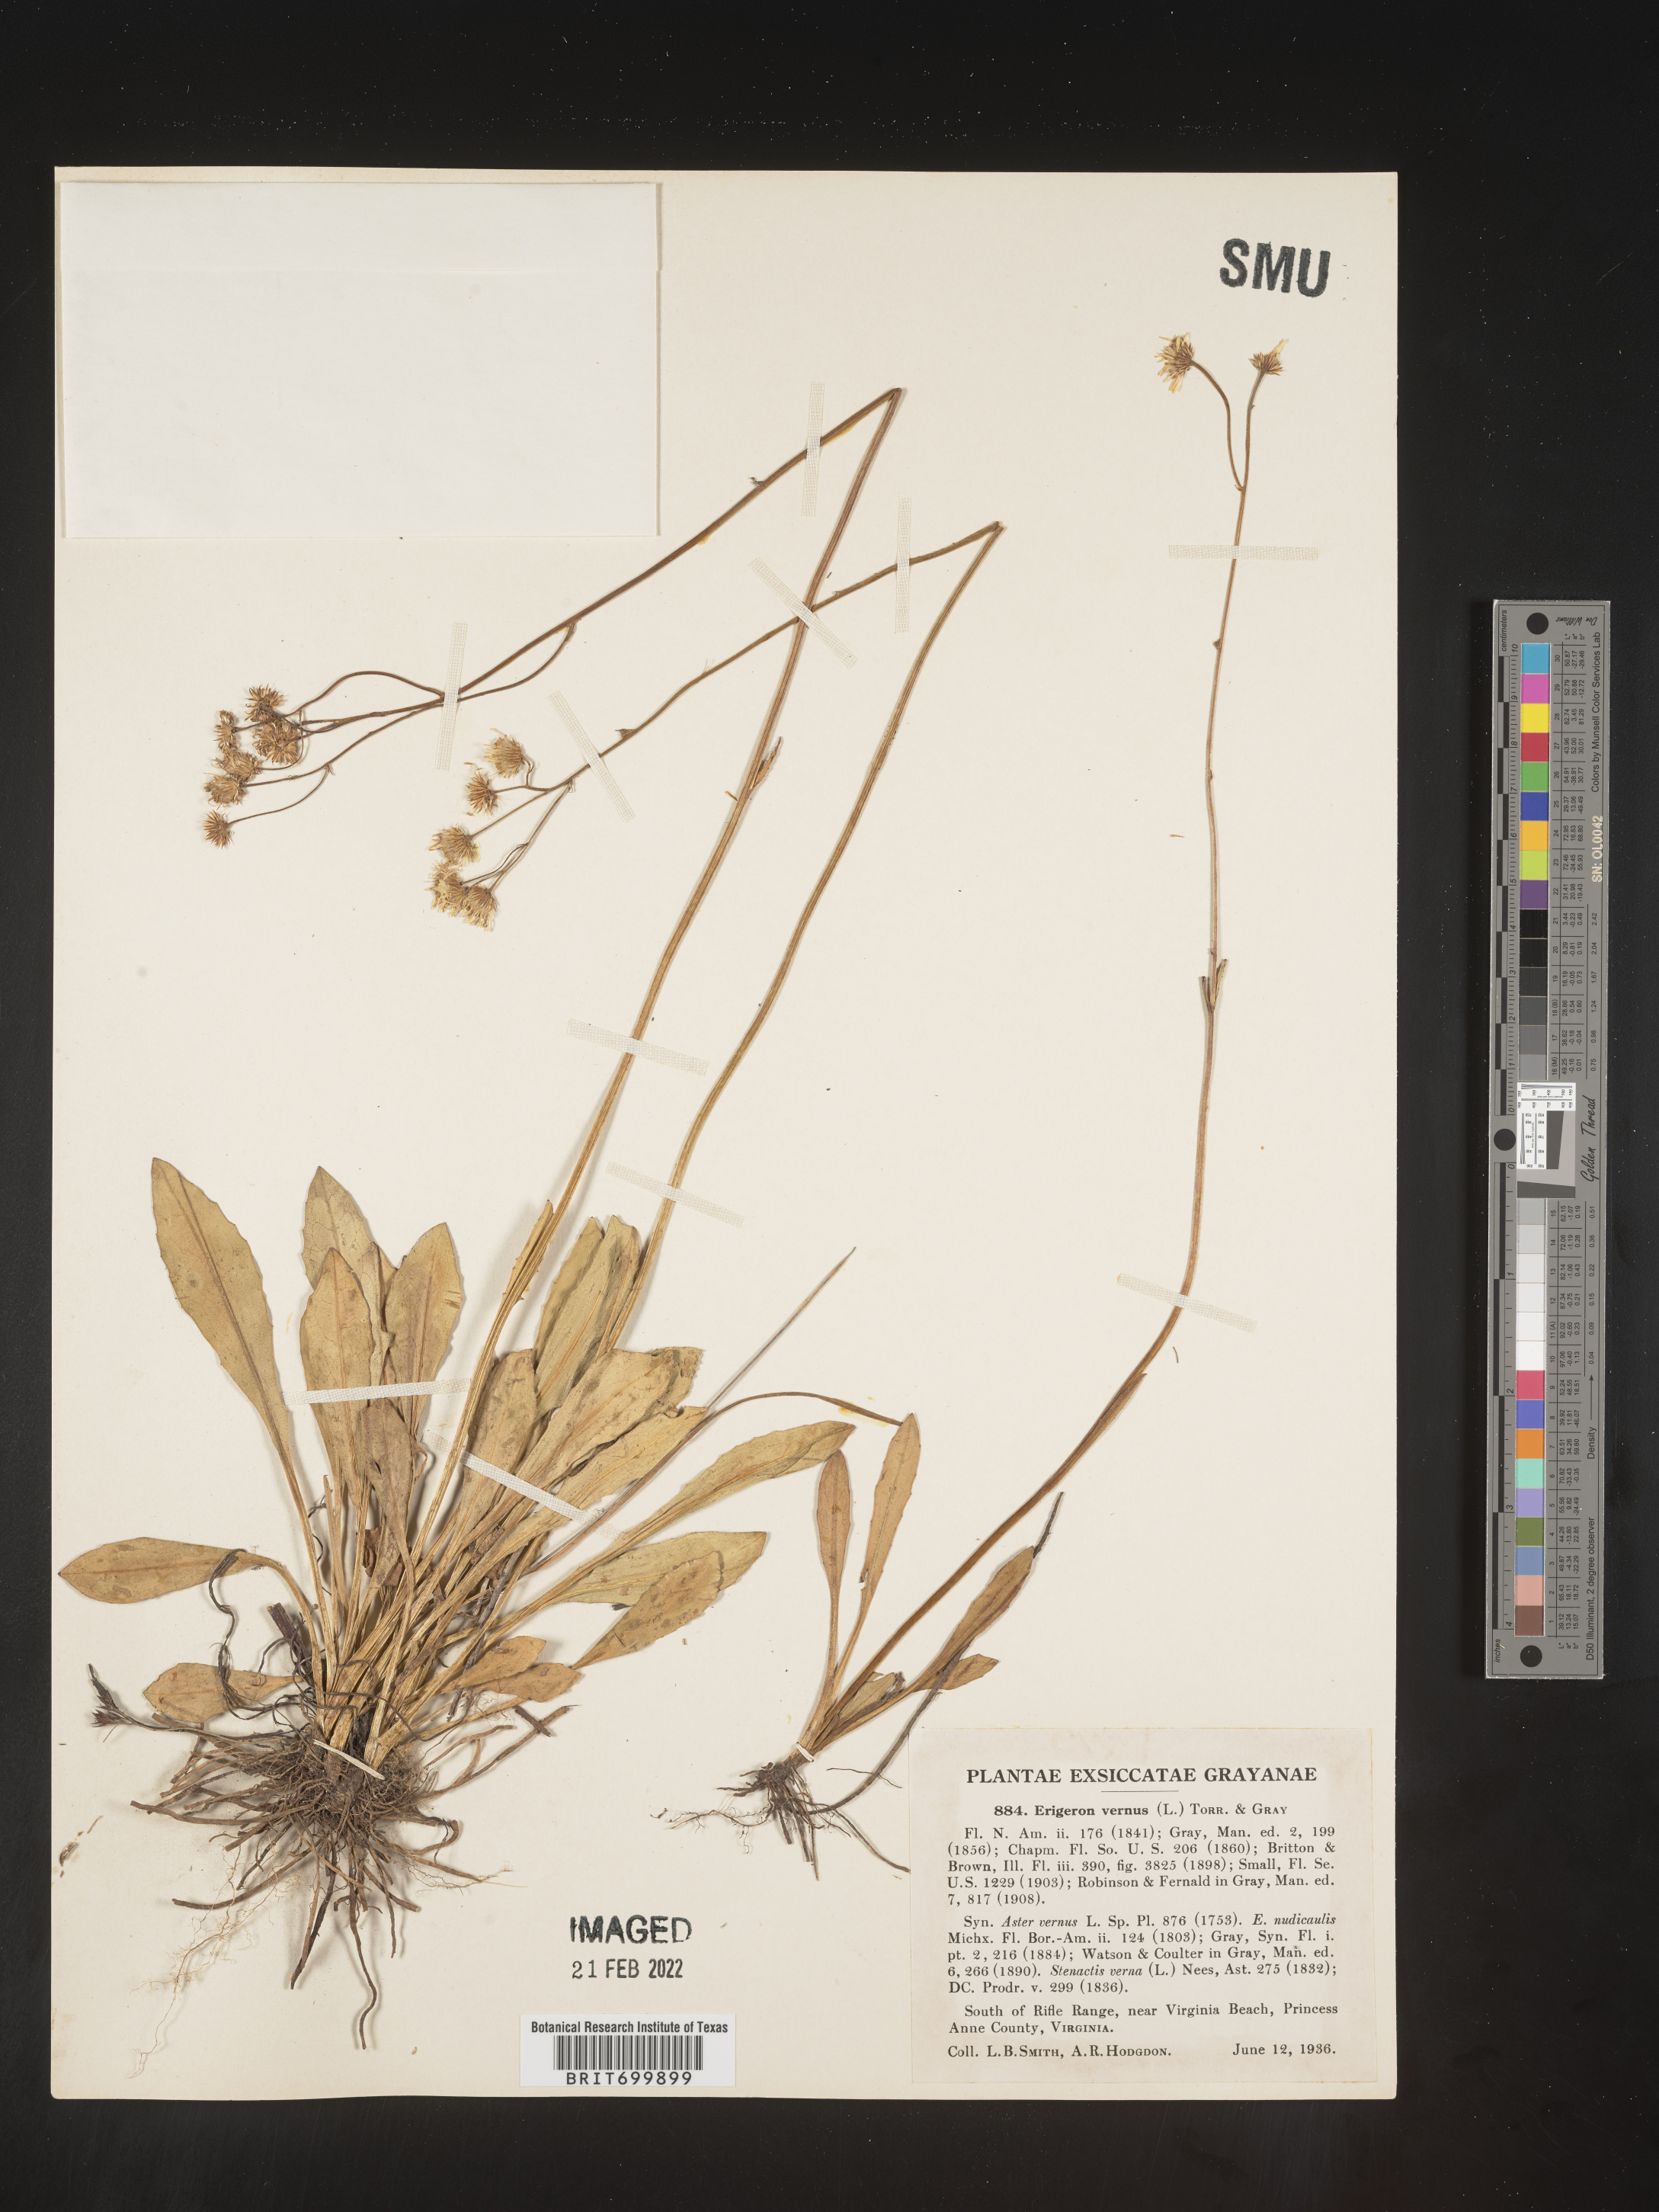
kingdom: Plantae
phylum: Tracheophyta
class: Magnoliopsida
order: Asterales
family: Asteraceae
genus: Erigeron
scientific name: Erigeron vernus
